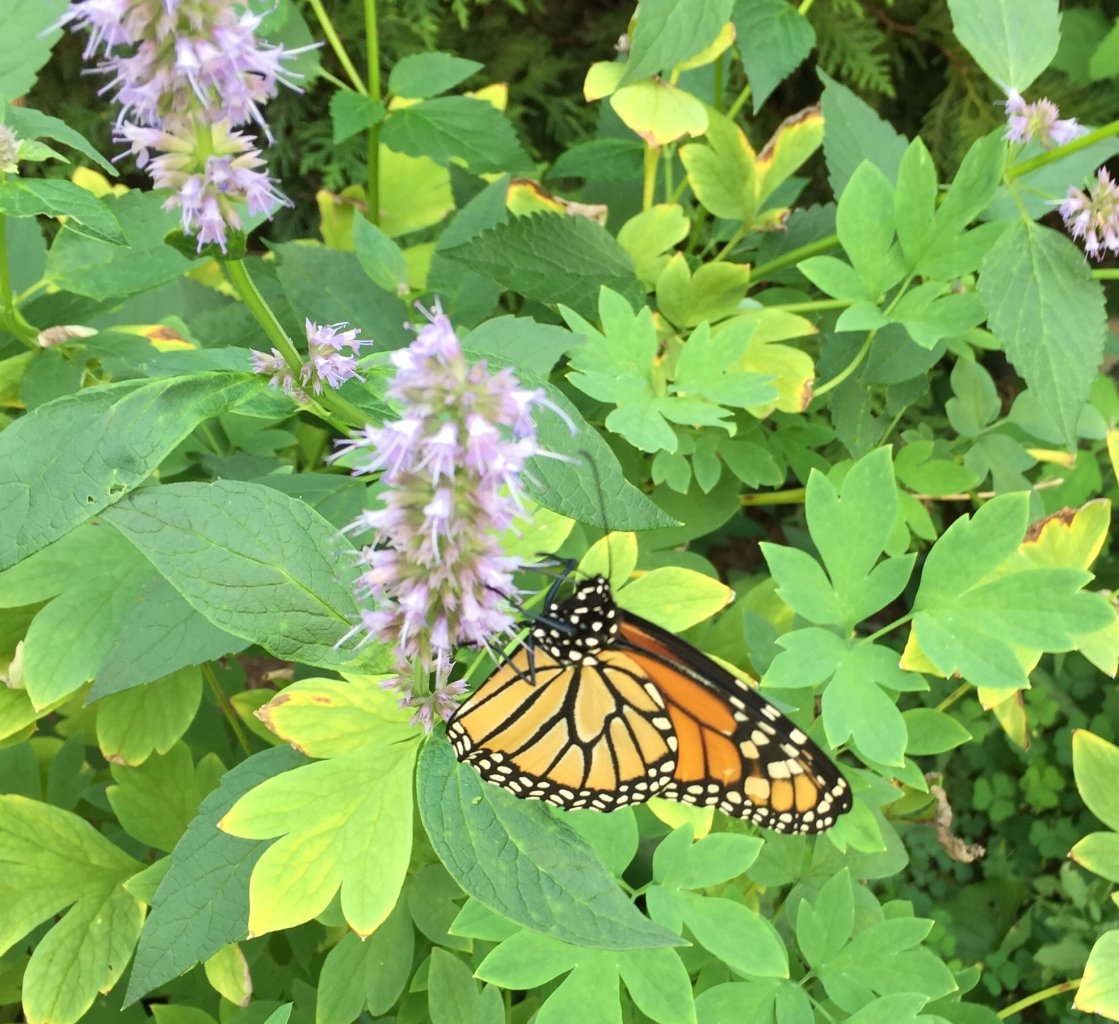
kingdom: Animalia
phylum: Arthropoda
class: Insecta
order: Lepidoptera
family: Nymphalidae
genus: Danaus
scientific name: Danaus plexippus
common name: Monarch
